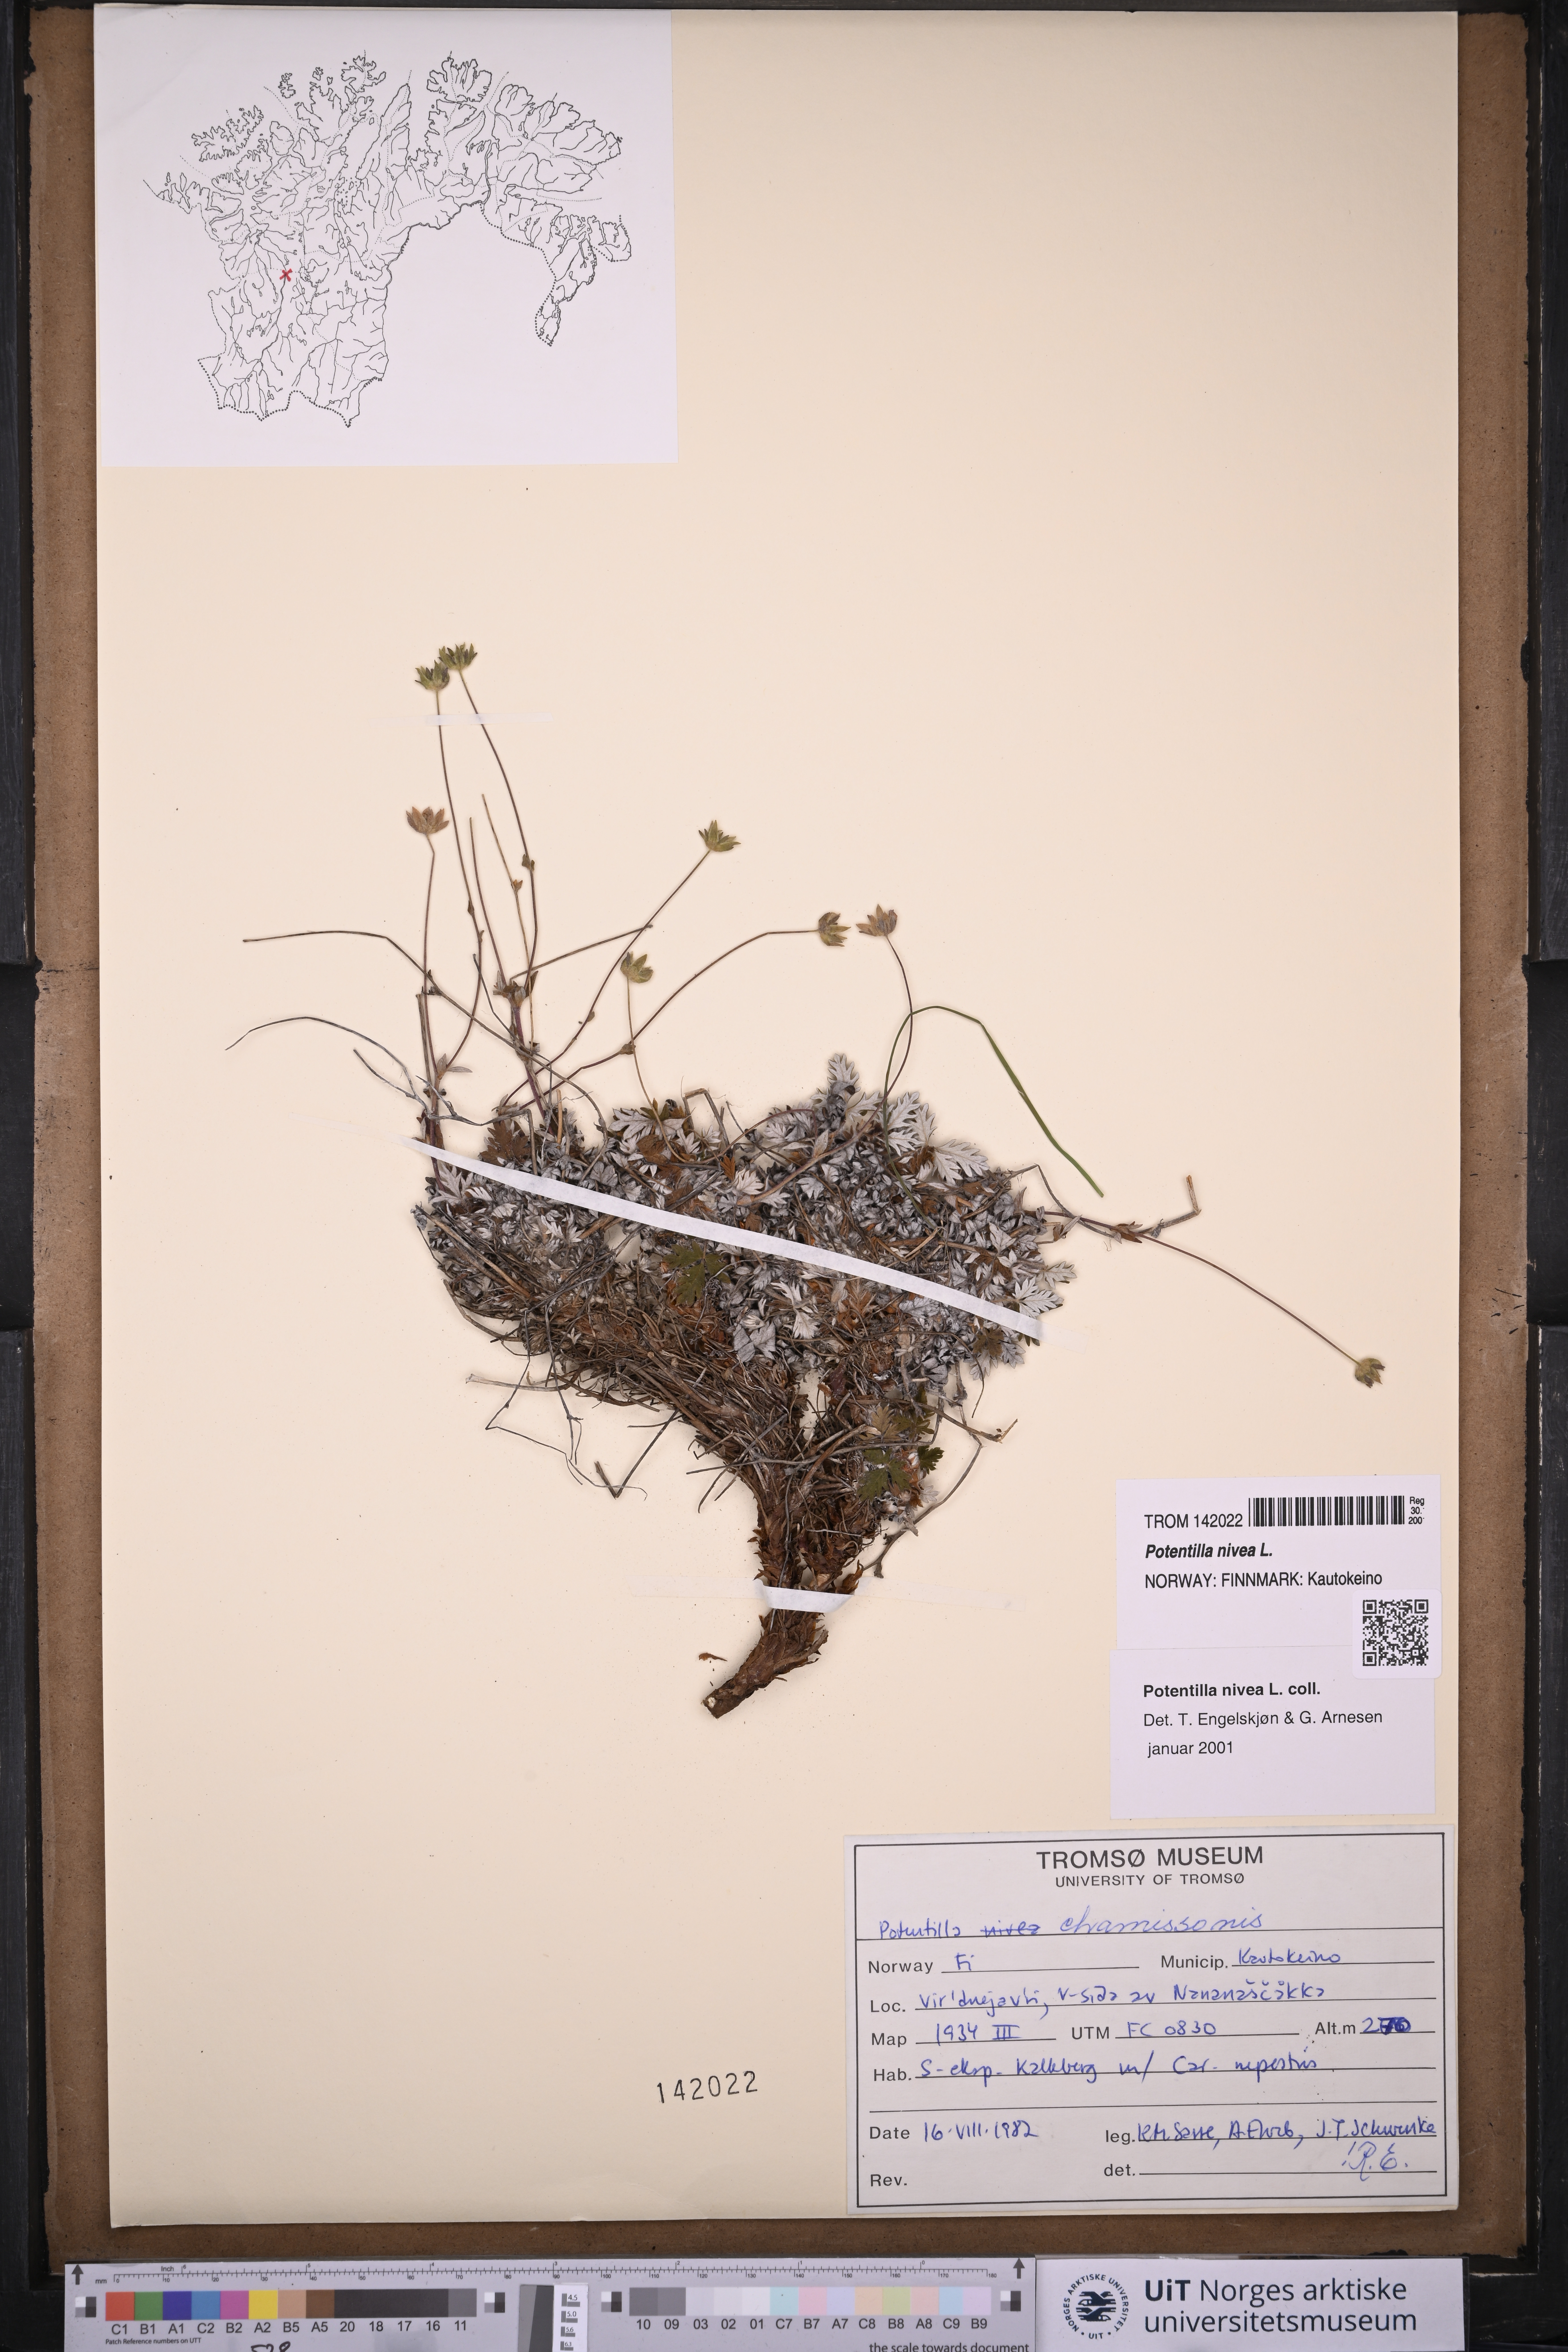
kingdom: Plantae
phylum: Tracheophyta
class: Magnoliopsida
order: Rosales
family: Rosaceae
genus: Potentilla
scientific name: Potentilla arenosa
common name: Bluff cinquefoil
